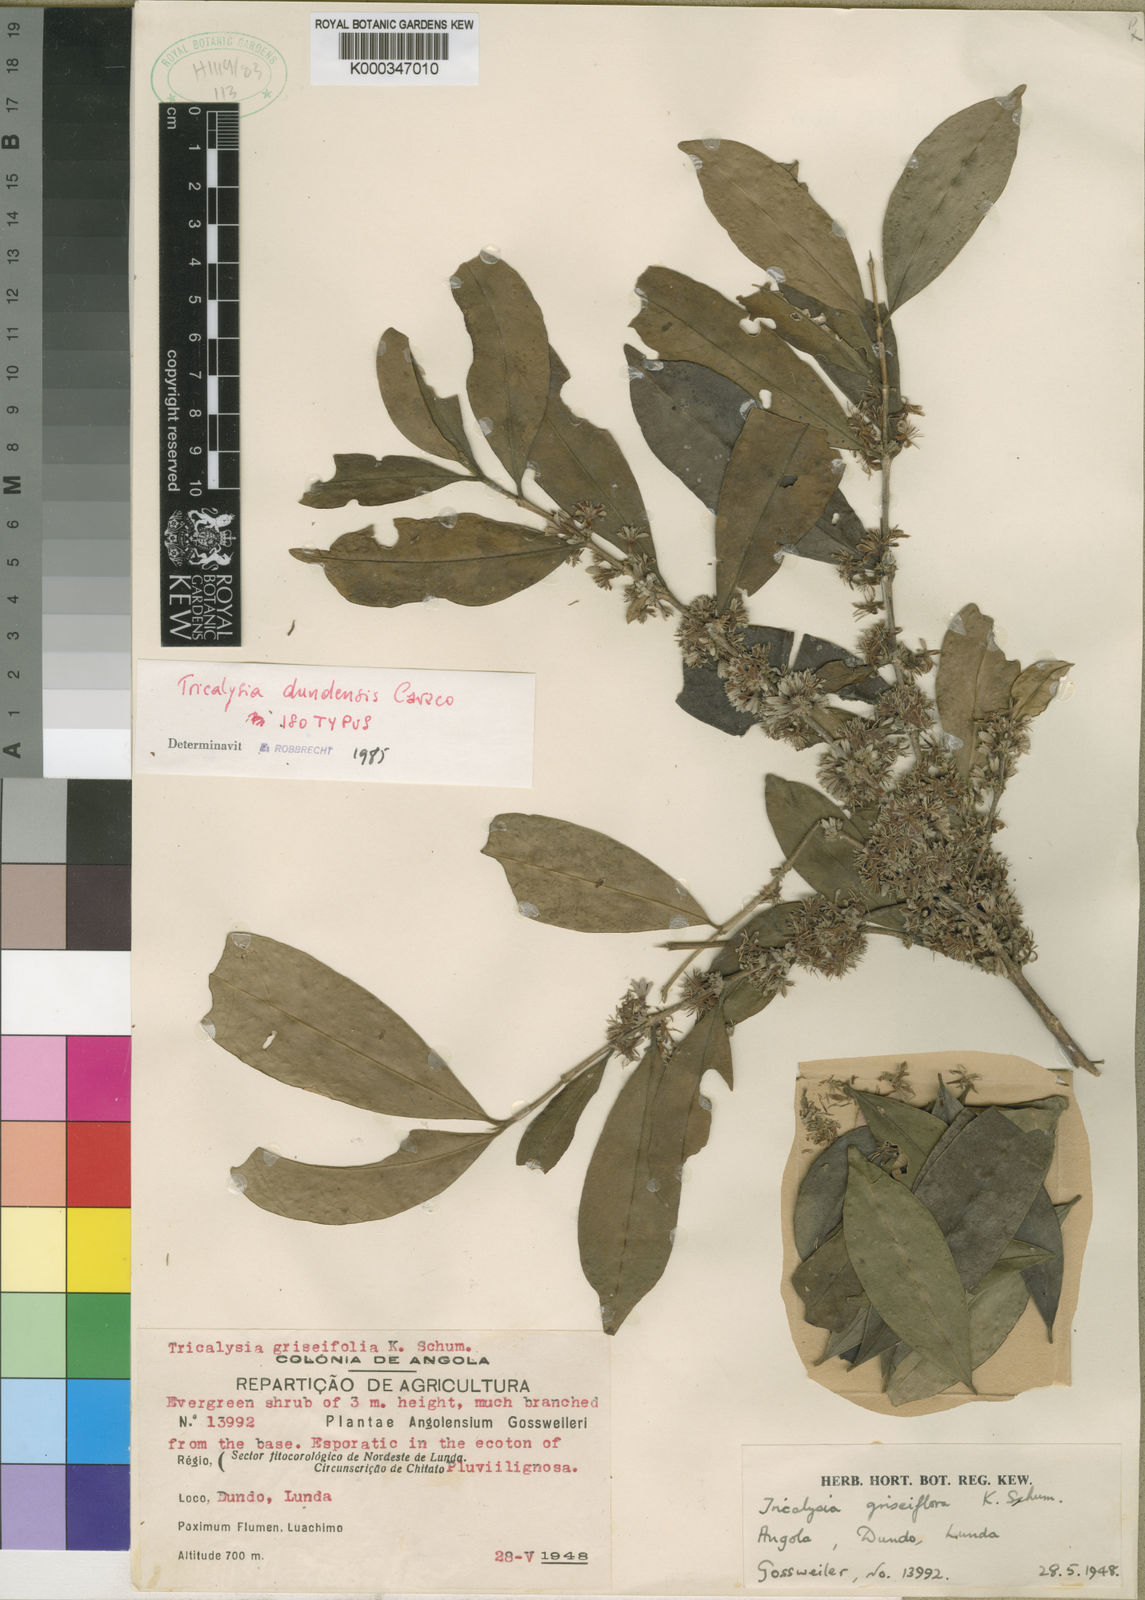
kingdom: Plantae
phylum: Tracheophyta
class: Magnoliopsida
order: Gentianales
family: Rubiaceae
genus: Tricalysia
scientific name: Tricalysia pallens
